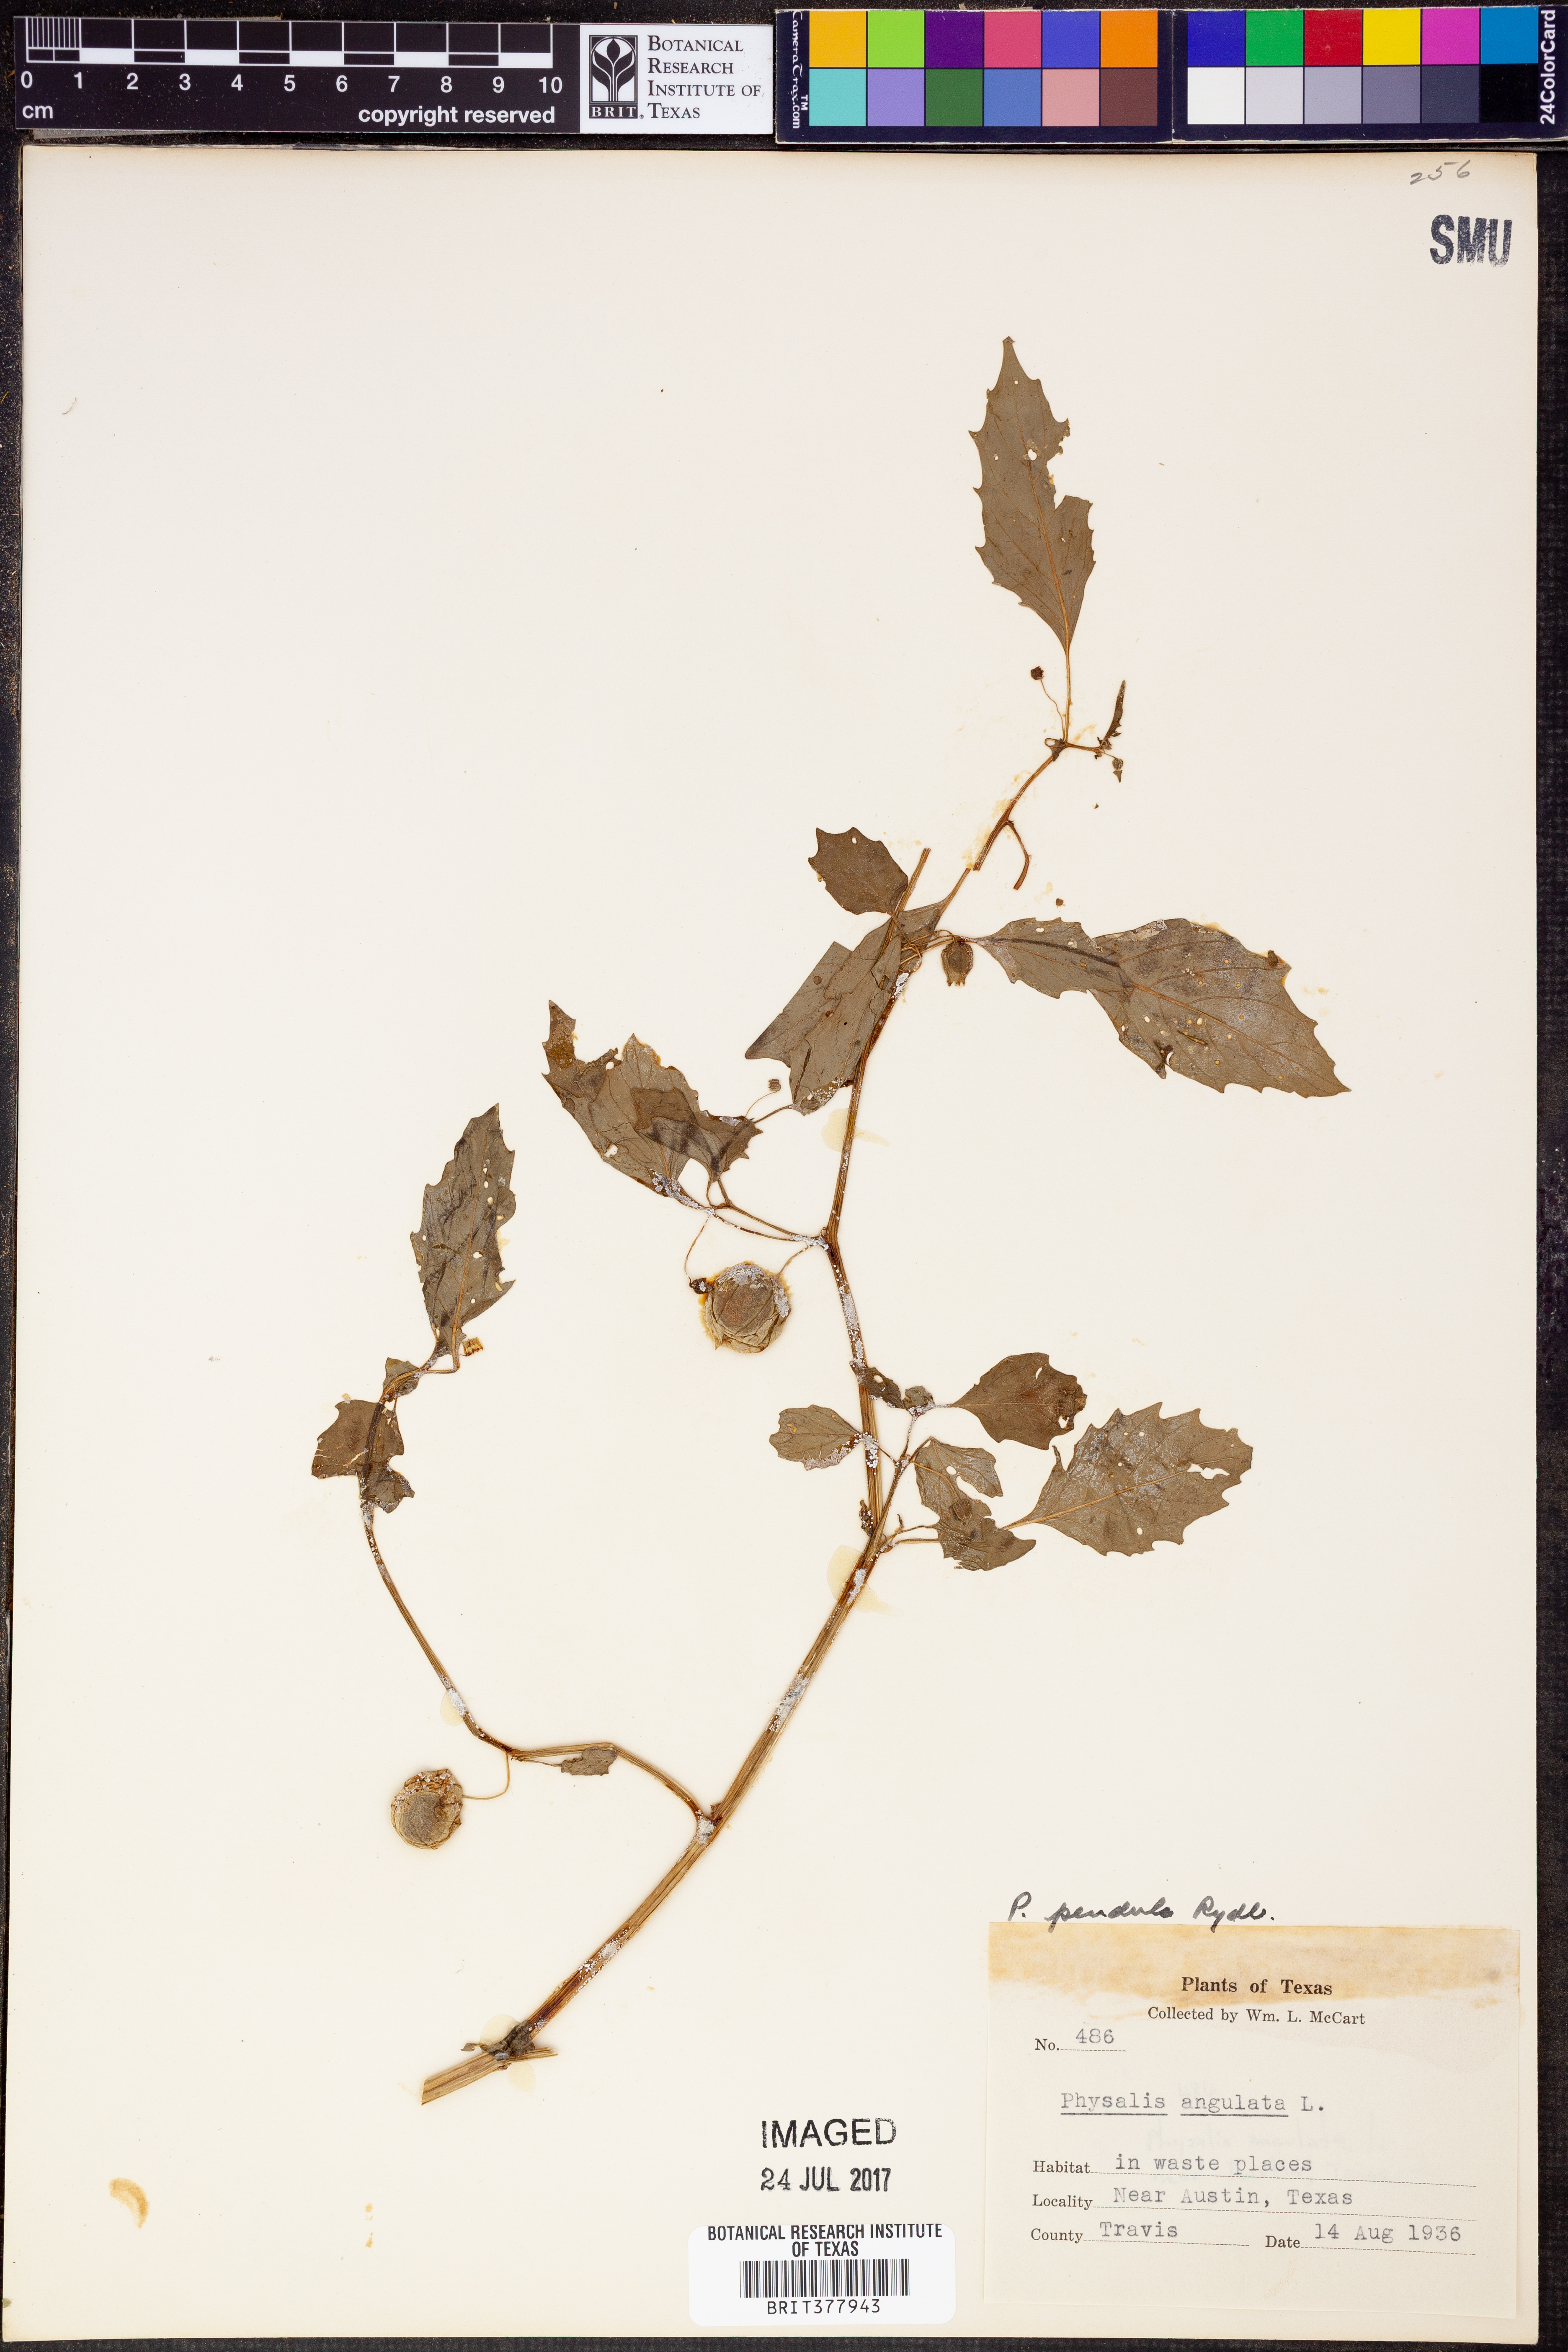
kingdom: Plantae
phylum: Tracheophyta
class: Magnoliopsida
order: Solanales
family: Solanaceae
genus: Physalis
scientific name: Physalis angulata
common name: Angular winter-cherry
